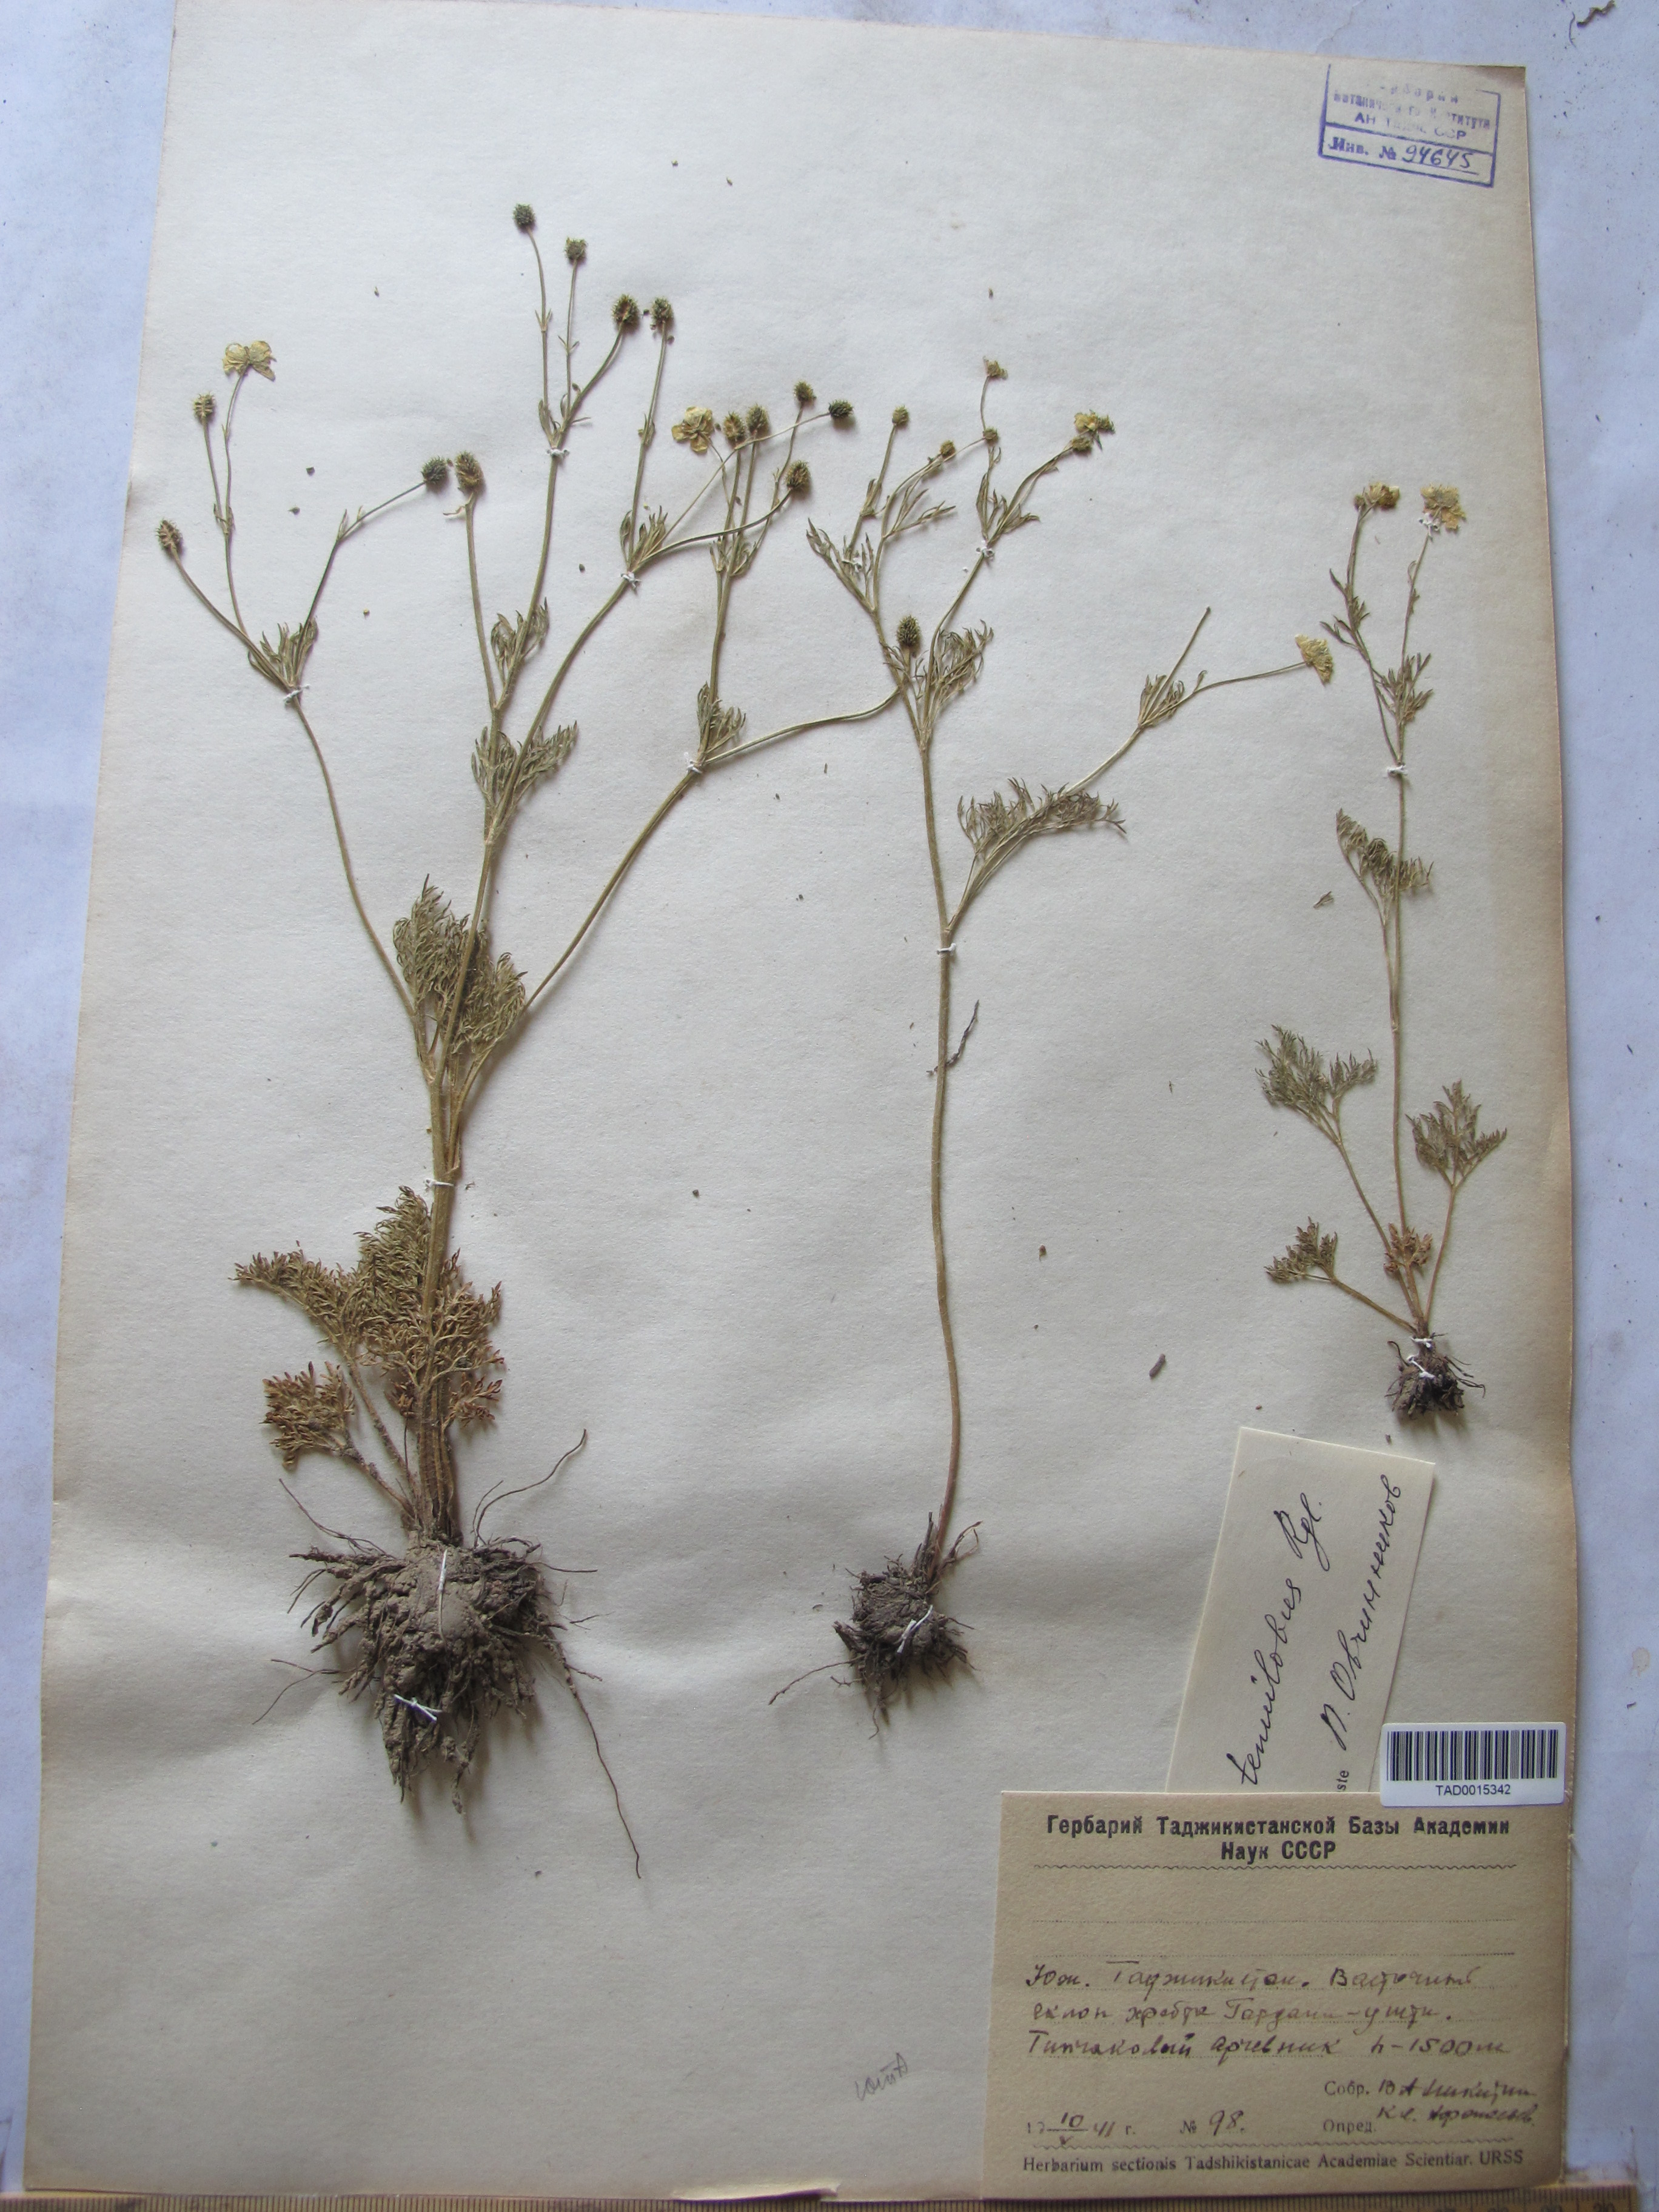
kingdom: Plantae
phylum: Tracheophyta
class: Magnoliopsida
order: Ranunculales
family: Ranunculaceae
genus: Ranunculus
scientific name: Ranunculus tenuilobus
